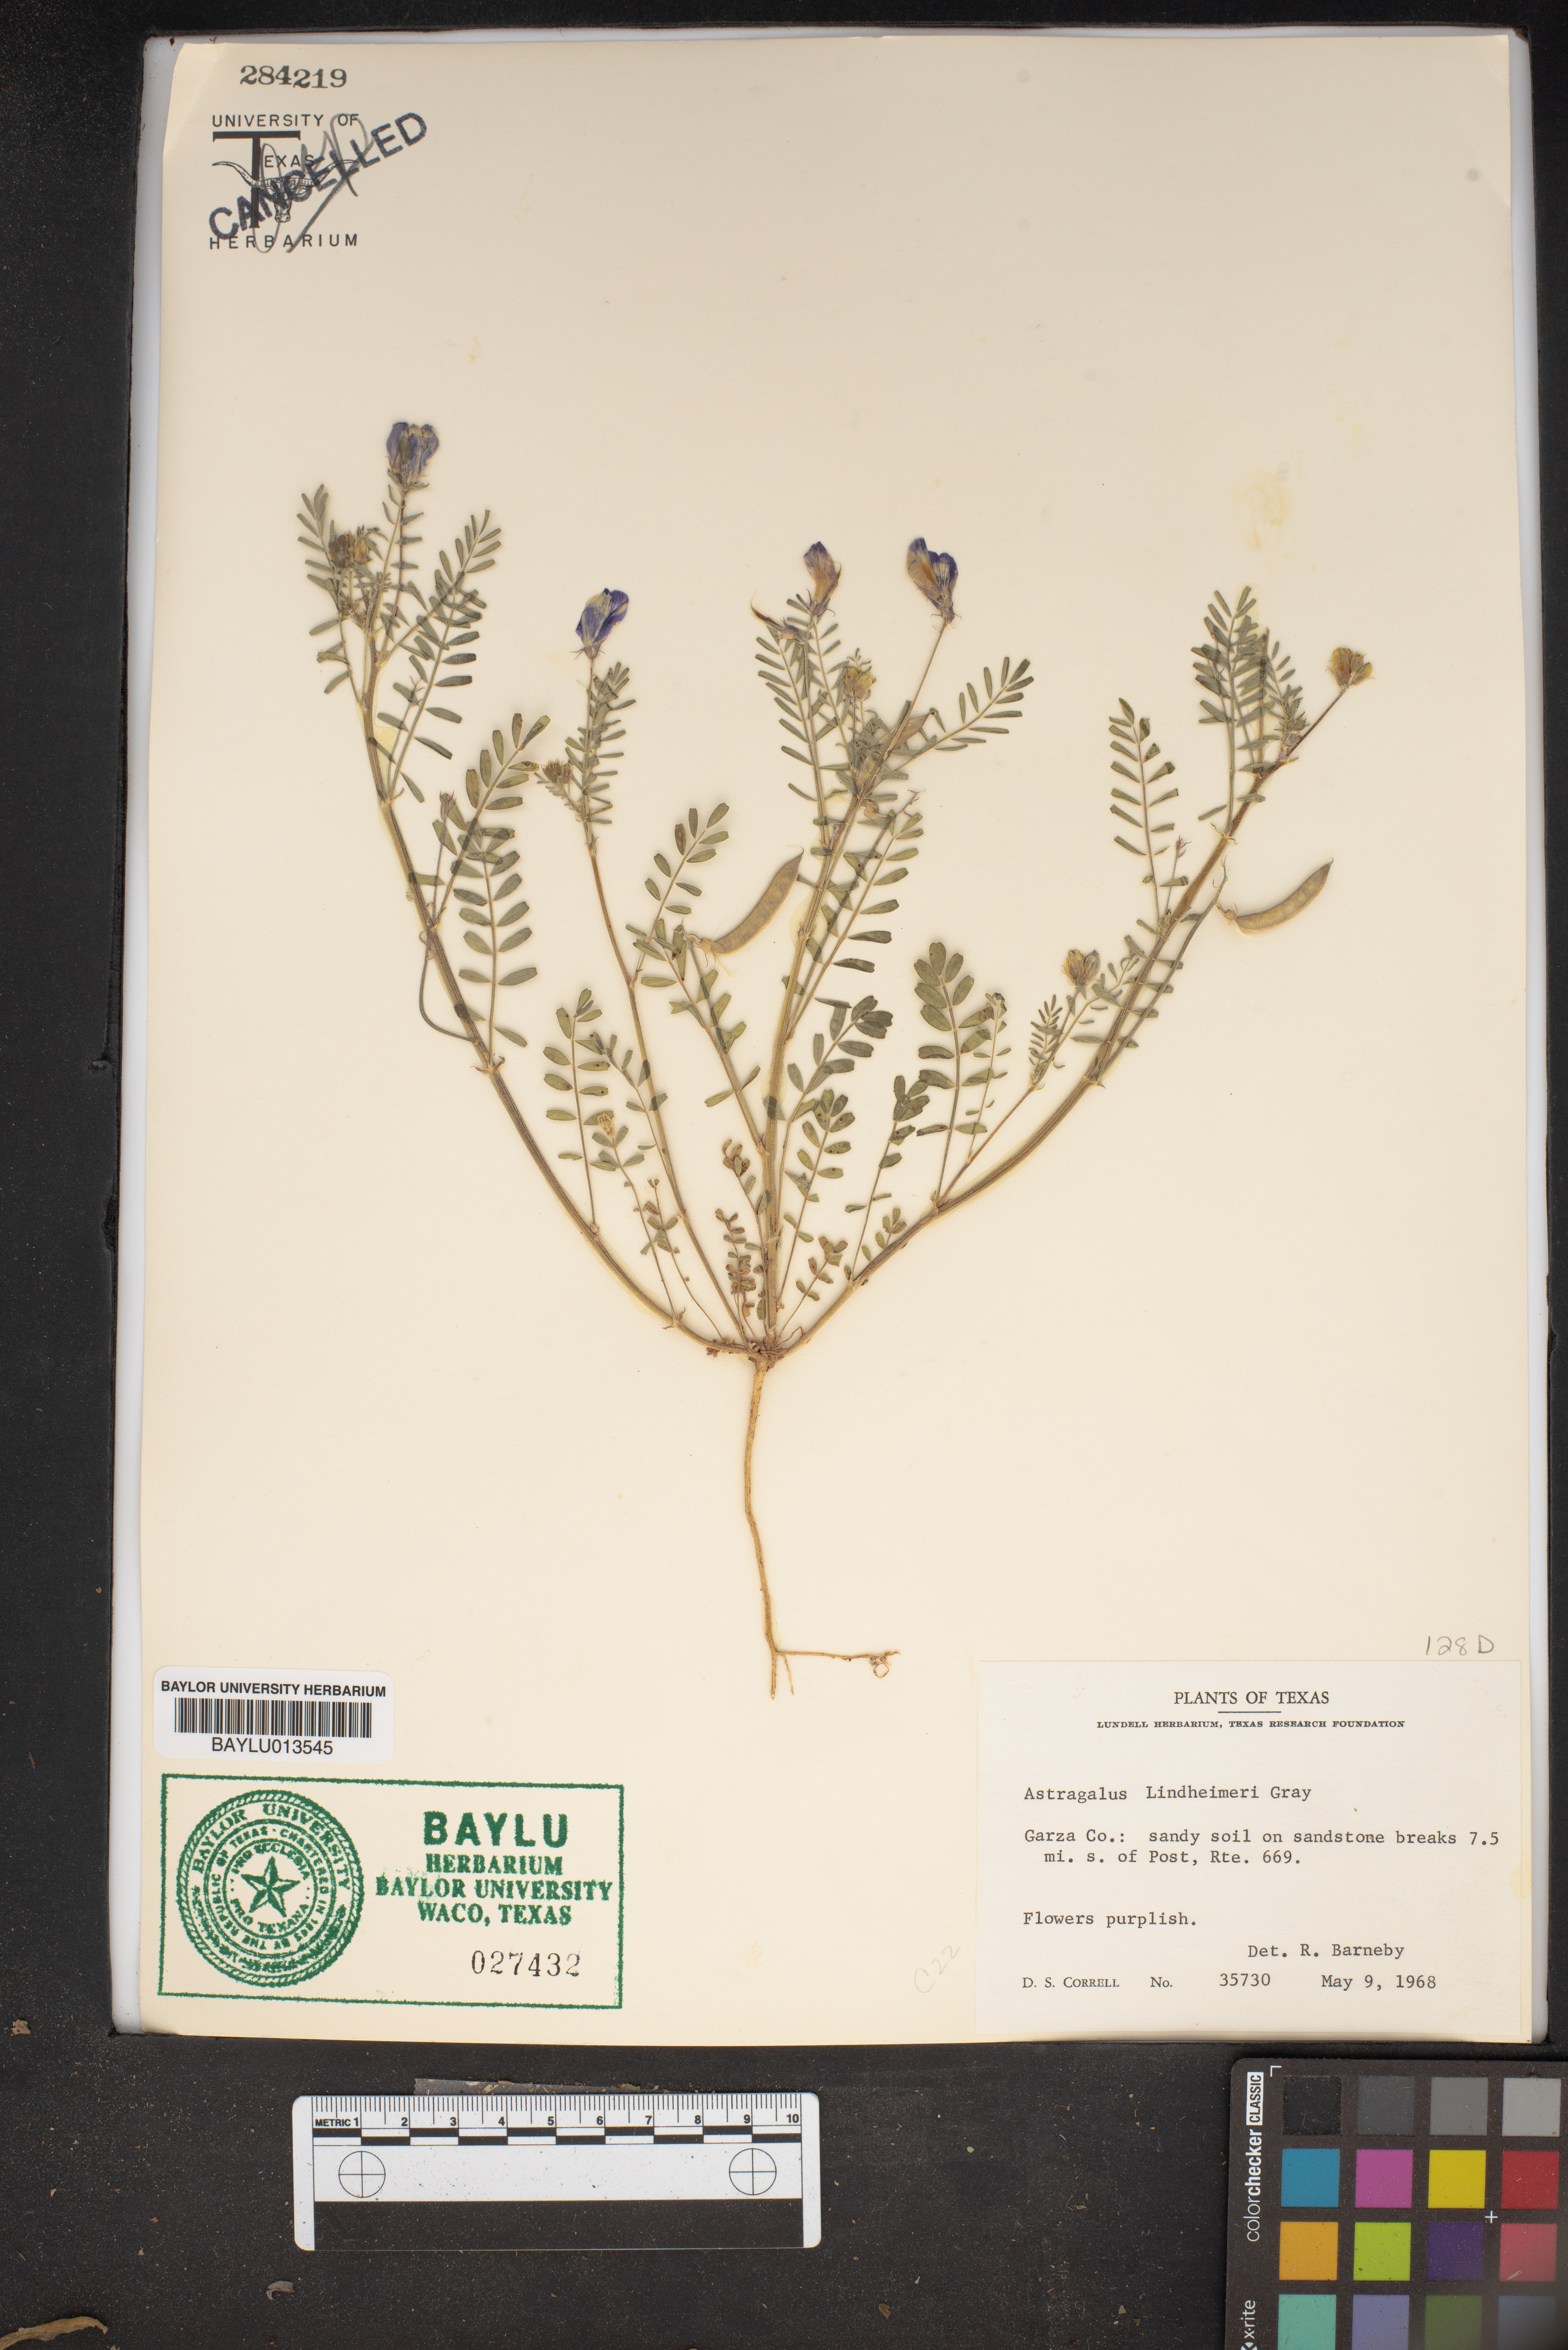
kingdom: Plantae
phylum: Tracheophyta
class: Magnoliopsida
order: Fabales
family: Fabaceae
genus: Astragalus
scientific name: Astragalus lindheimeri
